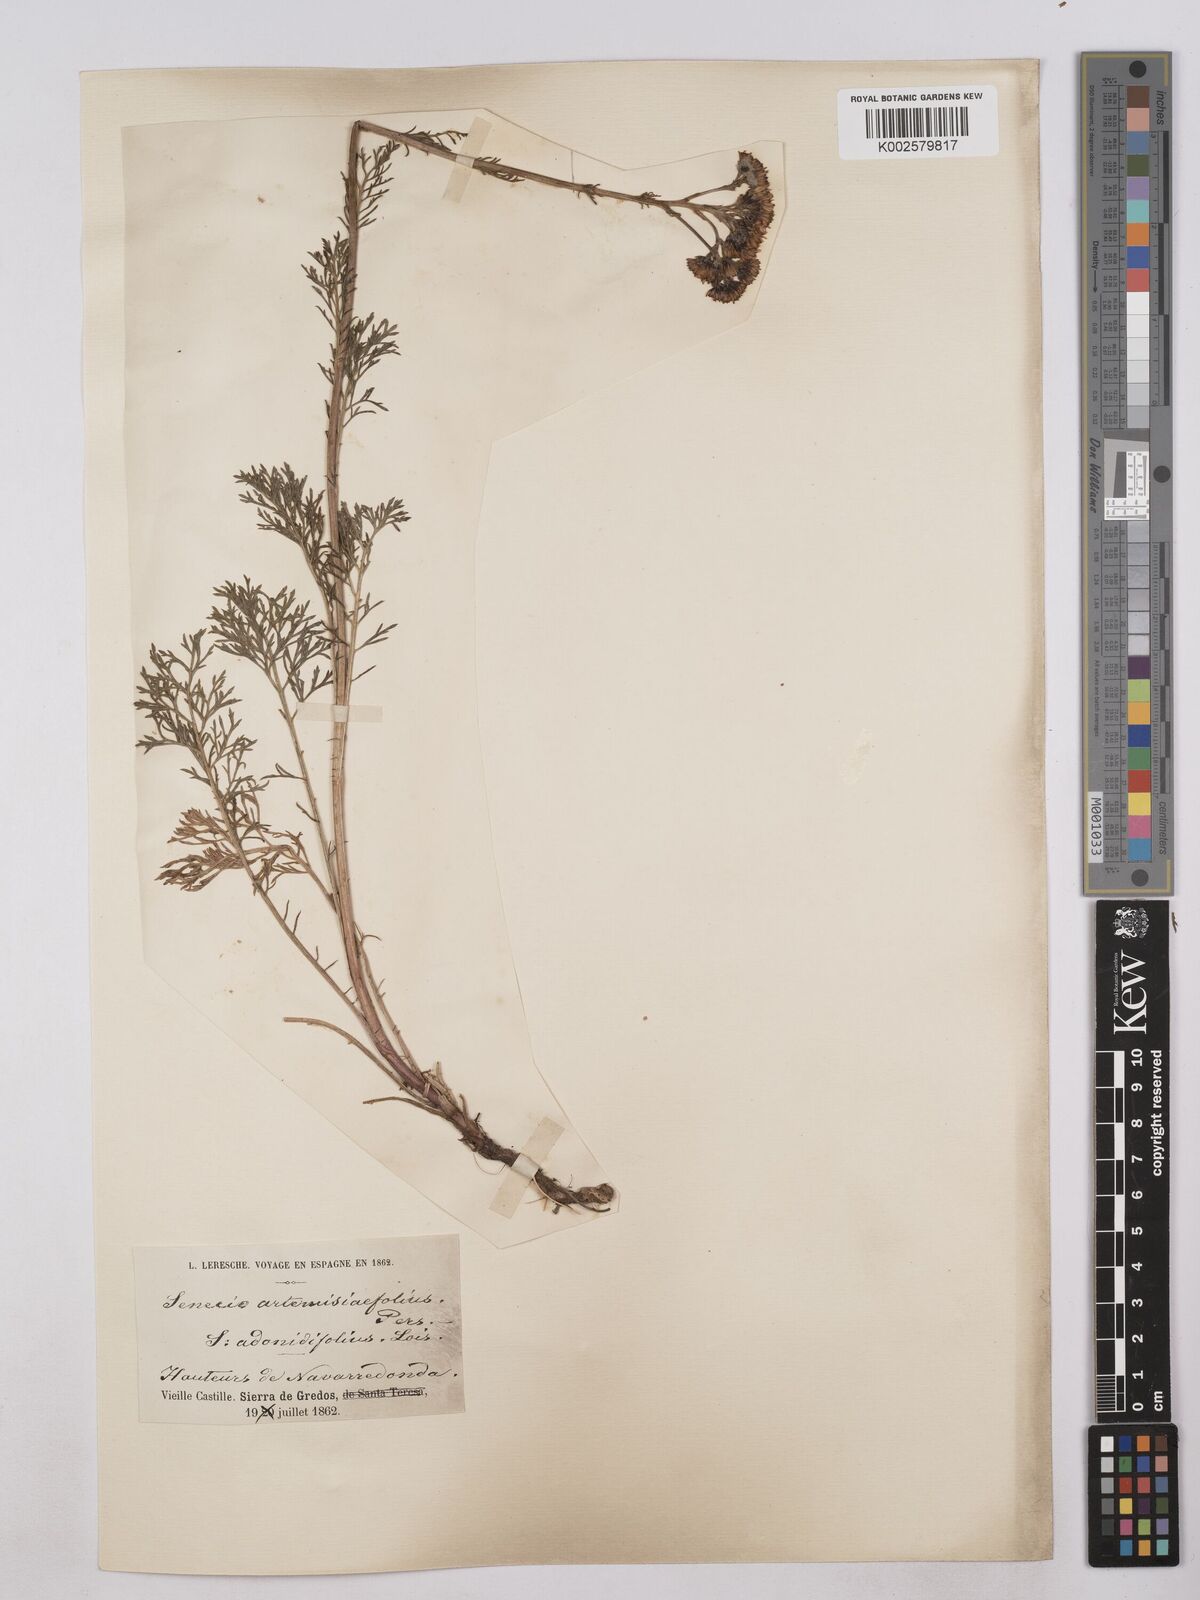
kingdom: Plantae
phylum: Tracheophyta
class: Magnoliopsida
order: Asterales
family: Asteraceae
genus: Jacobaea
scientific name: Jacobaea adonidifolia
